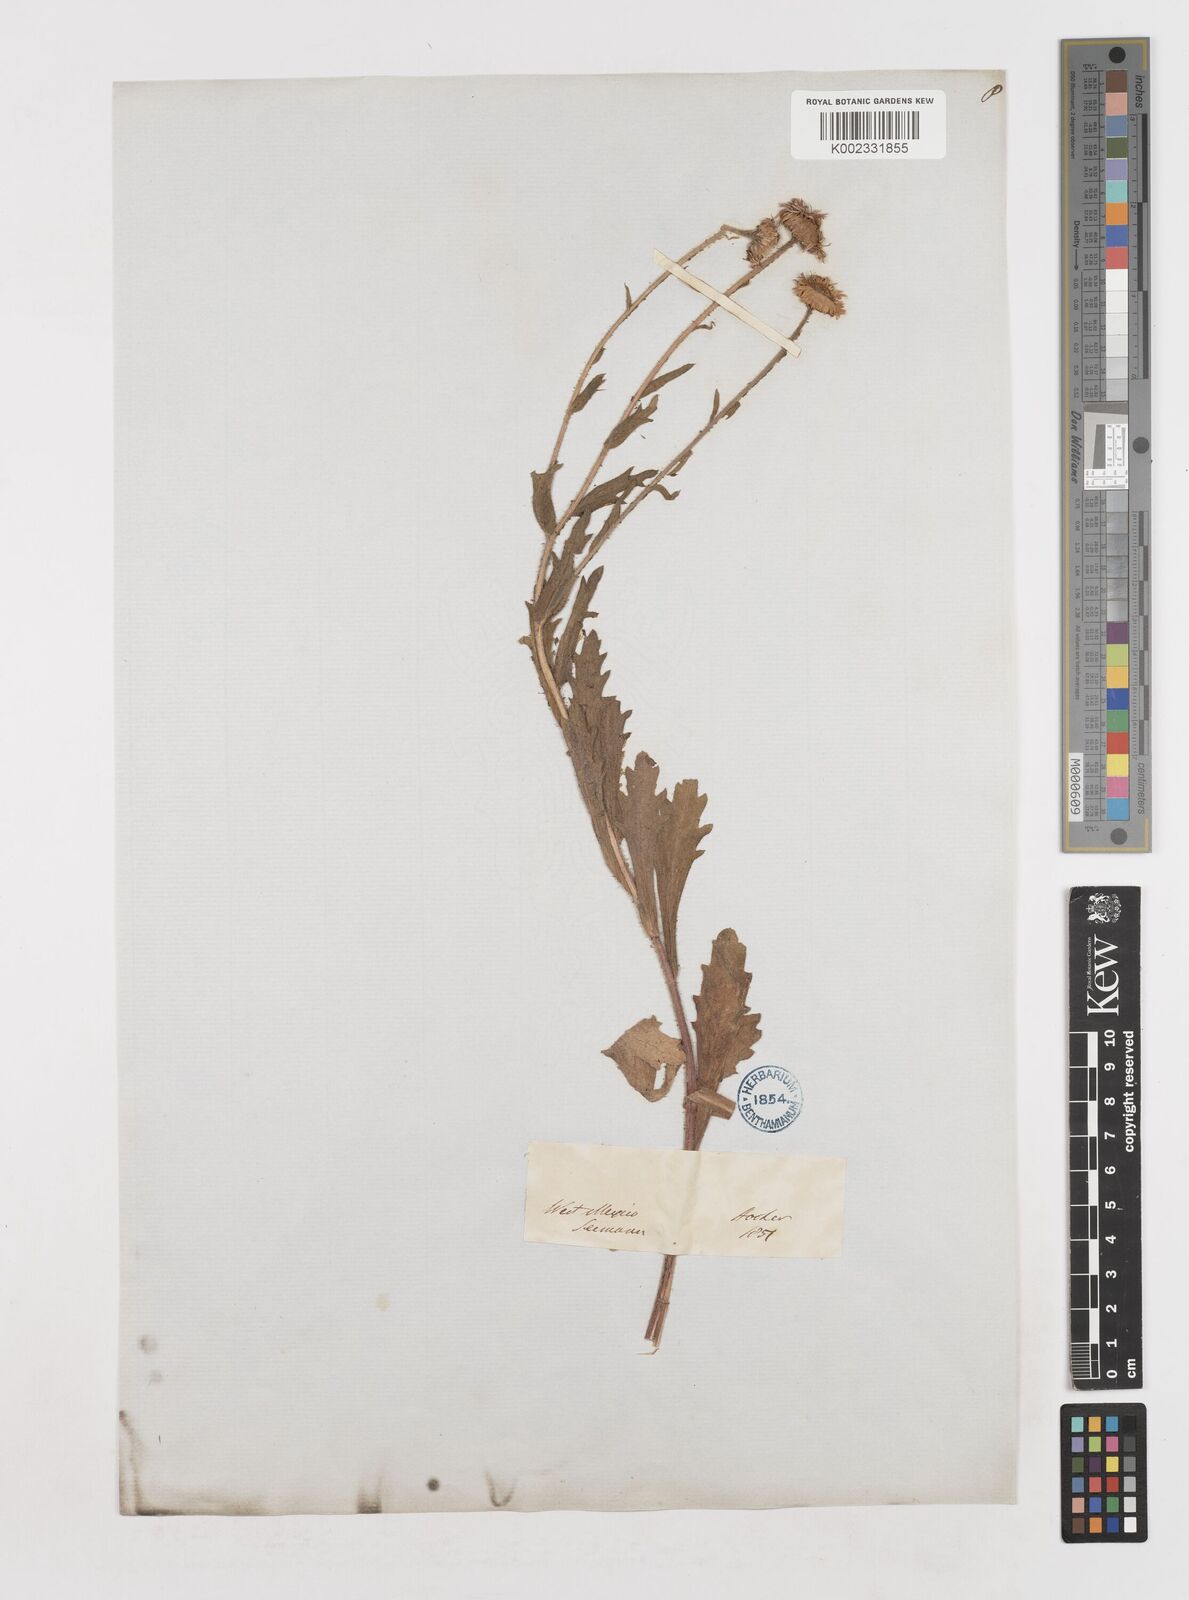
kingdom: Plantae
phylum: Tracheophyta
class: Magnoliopsida
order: Asterales
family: Asteraceae
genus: Erigeron
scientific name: Erigeron seemannii
